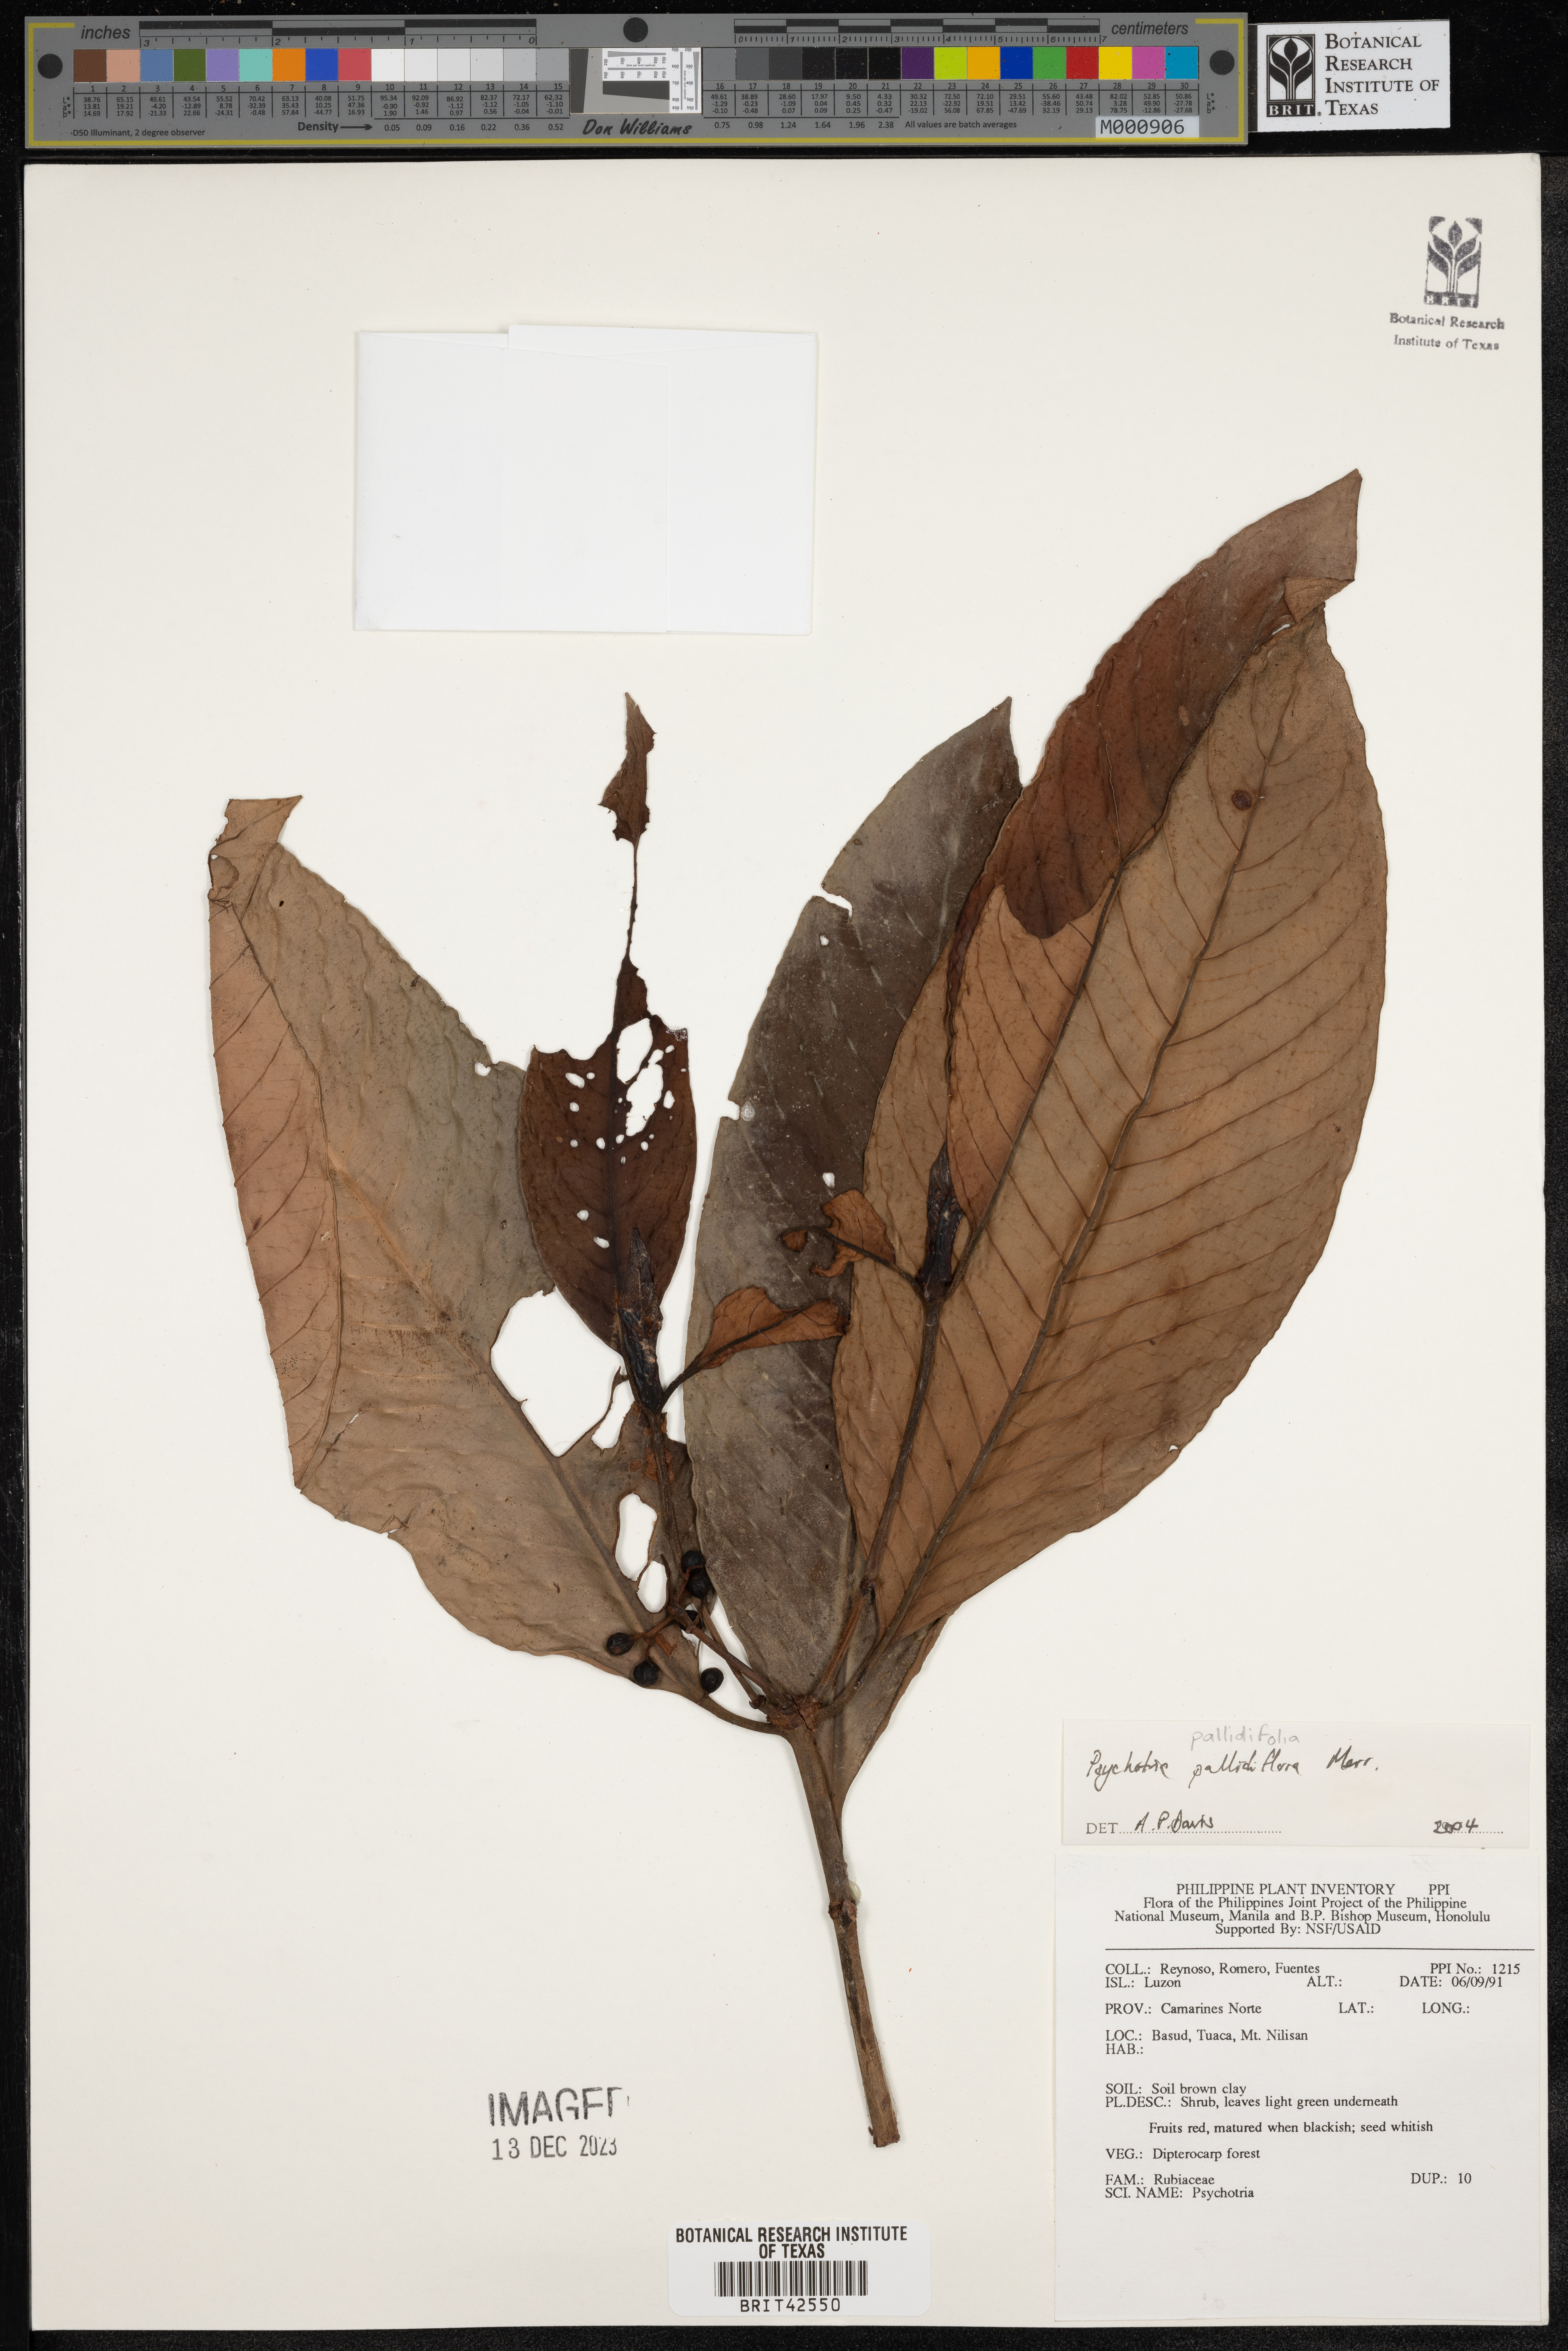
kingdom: Plantae
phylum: Tracheophyta
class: Magnoliopsida
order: Gentianales
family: Rubiaceae
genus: Psychotria
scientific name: Psychotria pallidifolia
